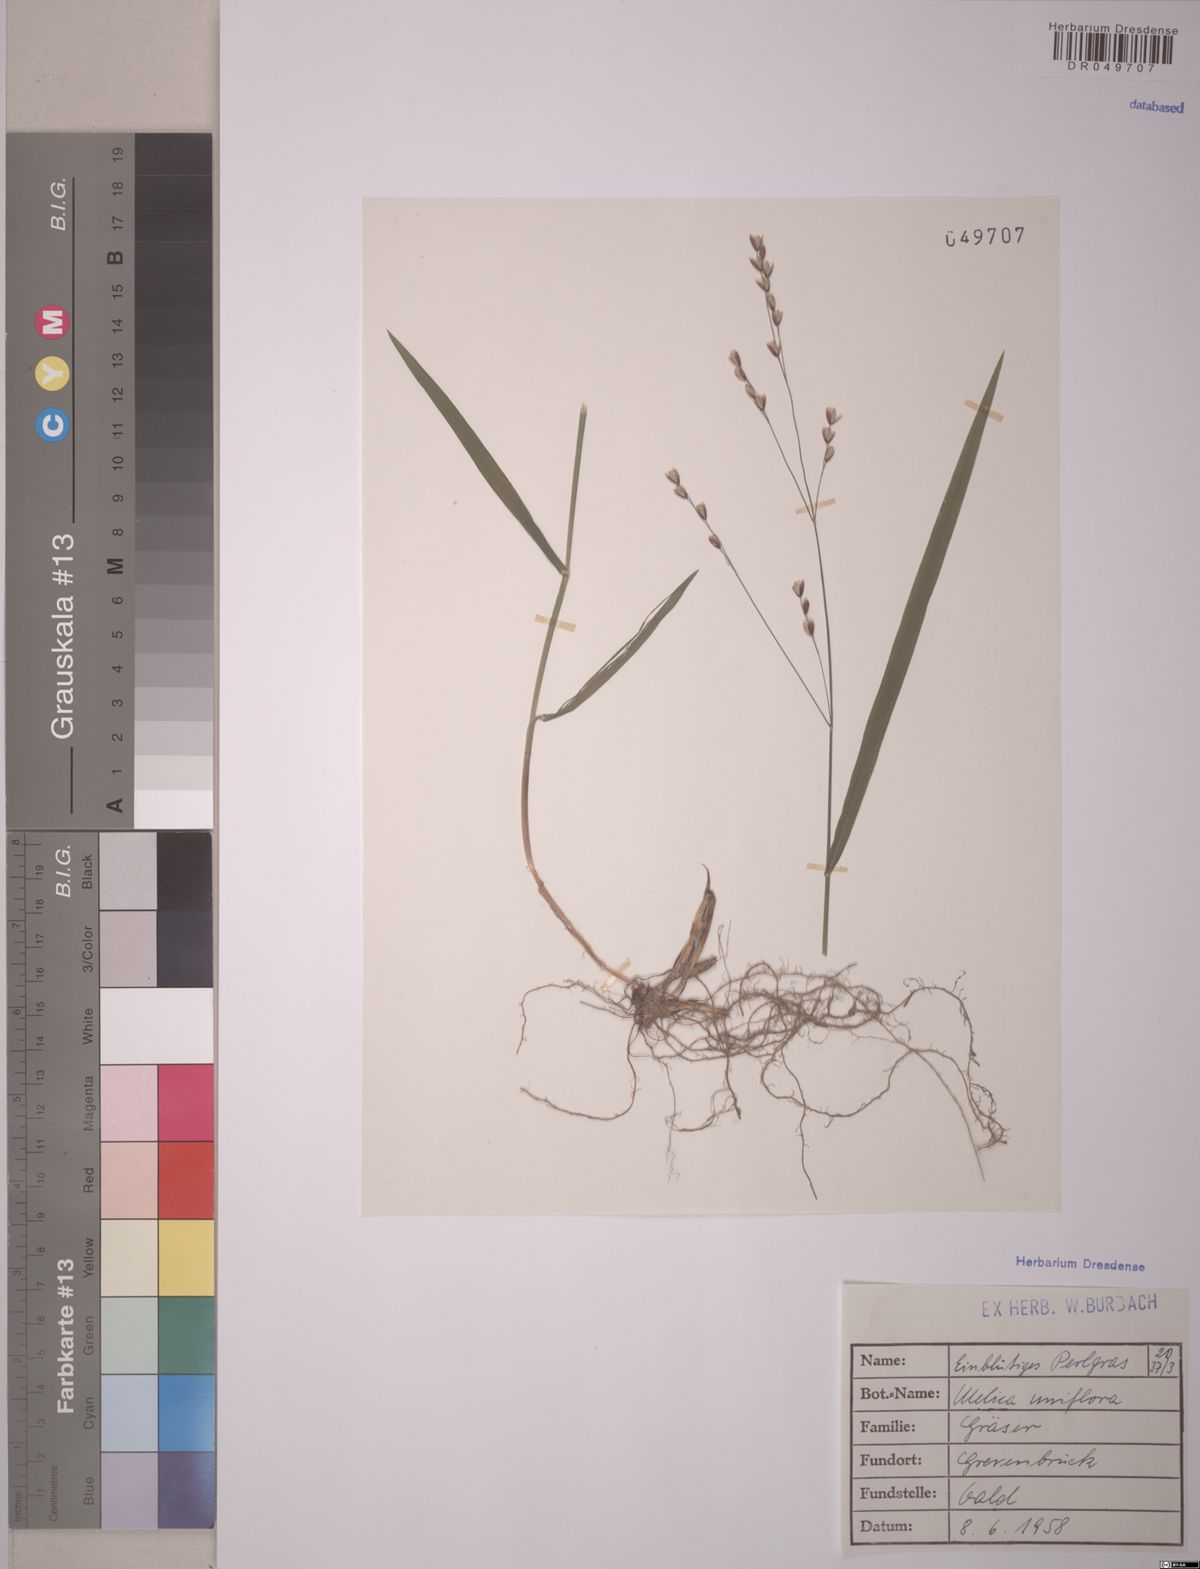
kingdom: Plantae
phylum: Tracheophyta
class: Liliopsida
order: Poales
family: Poaceae
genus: Melica
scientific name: Melica uniflora
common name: Wood melick
